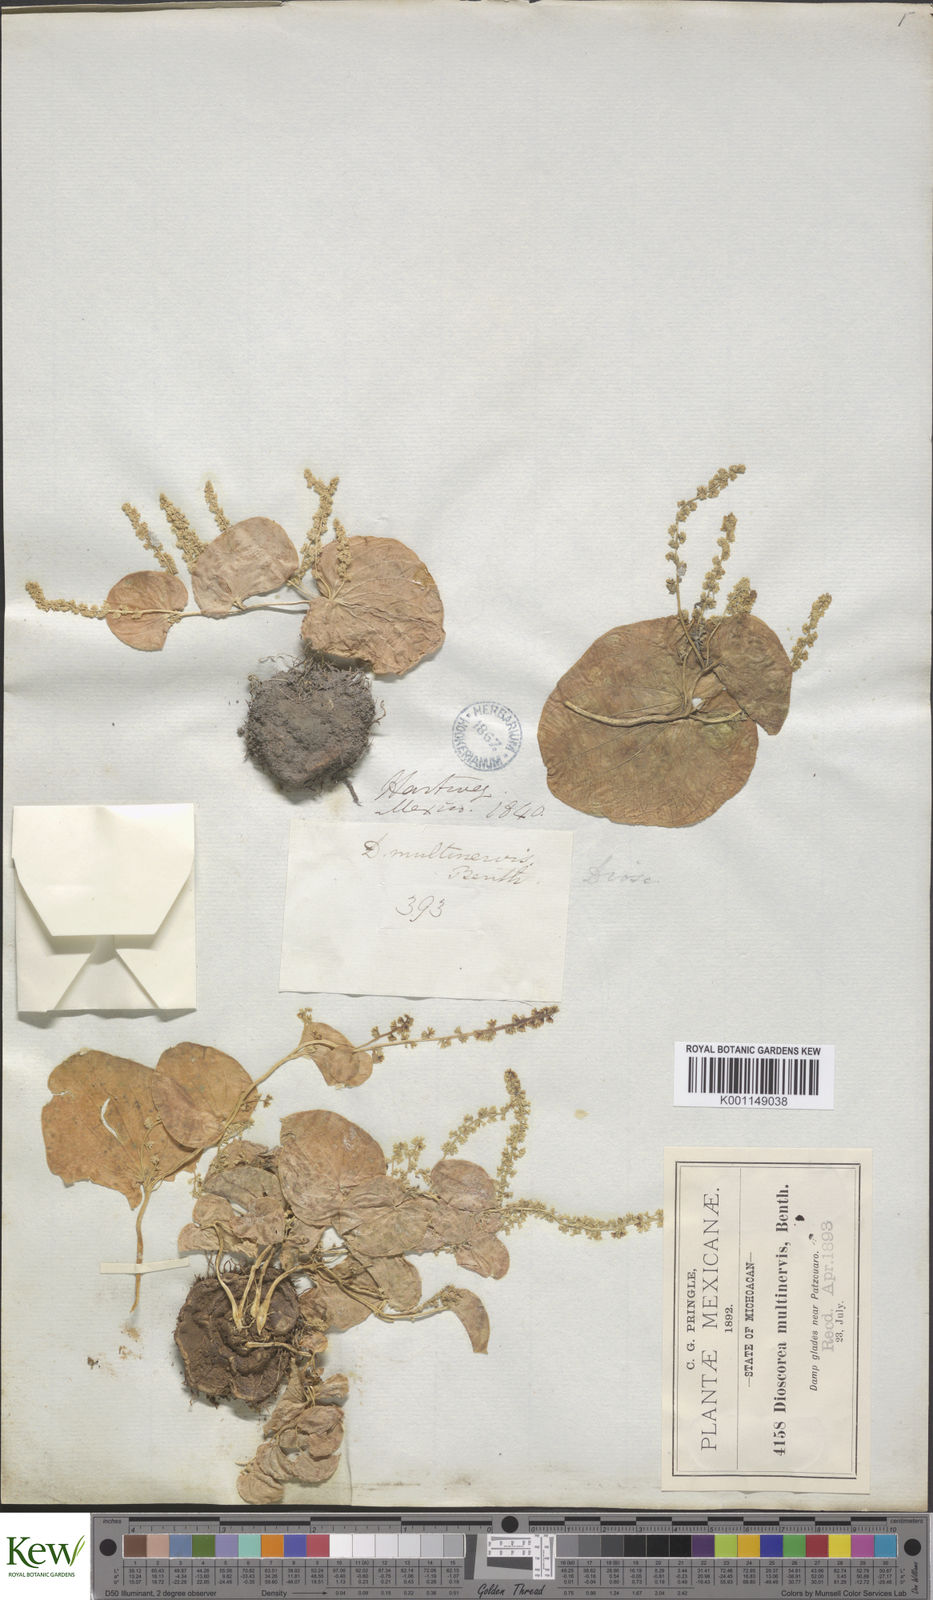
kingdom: Plantae
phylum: Tracheophyta
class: Liliopsida
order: Dioscoreales
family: Dioscoreaceae
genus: Dioscorea
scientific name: Dioscorea multinervis
